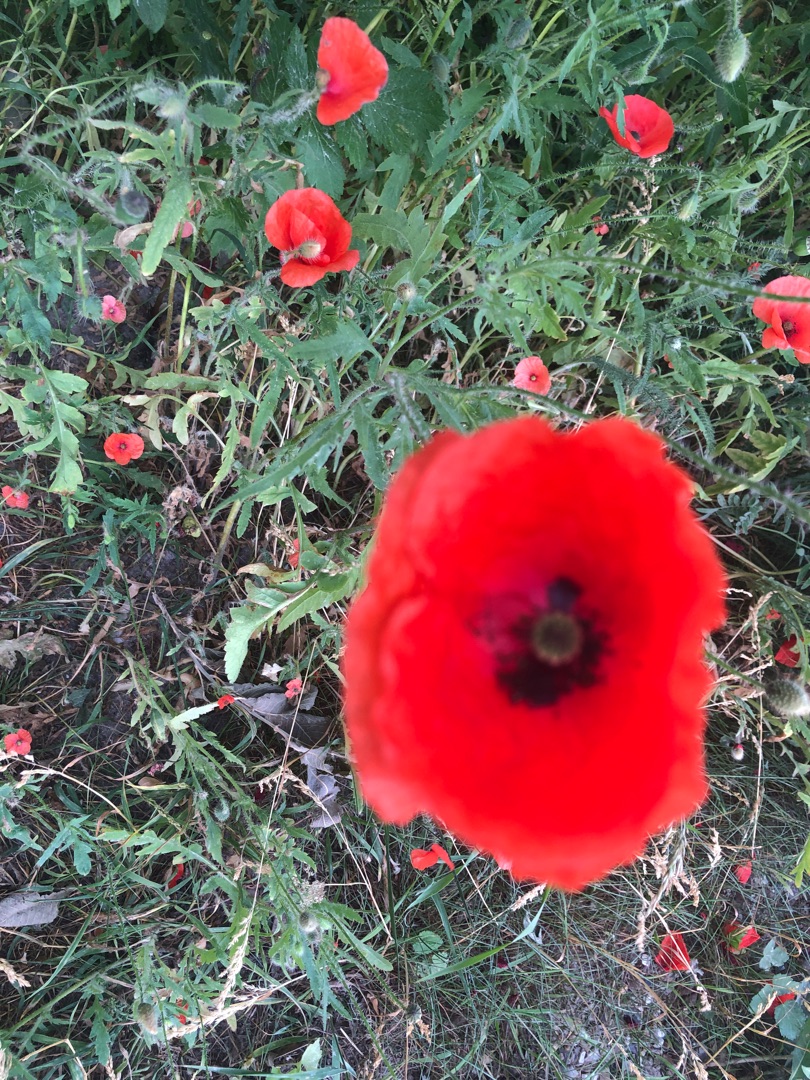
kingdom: Plantae
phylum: Tracheophyta
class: Magnoliopsida
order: Ranunculales
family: Papaveraceae
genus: Papaver
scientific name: Papaver rhoeas
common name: Korn-valmue
